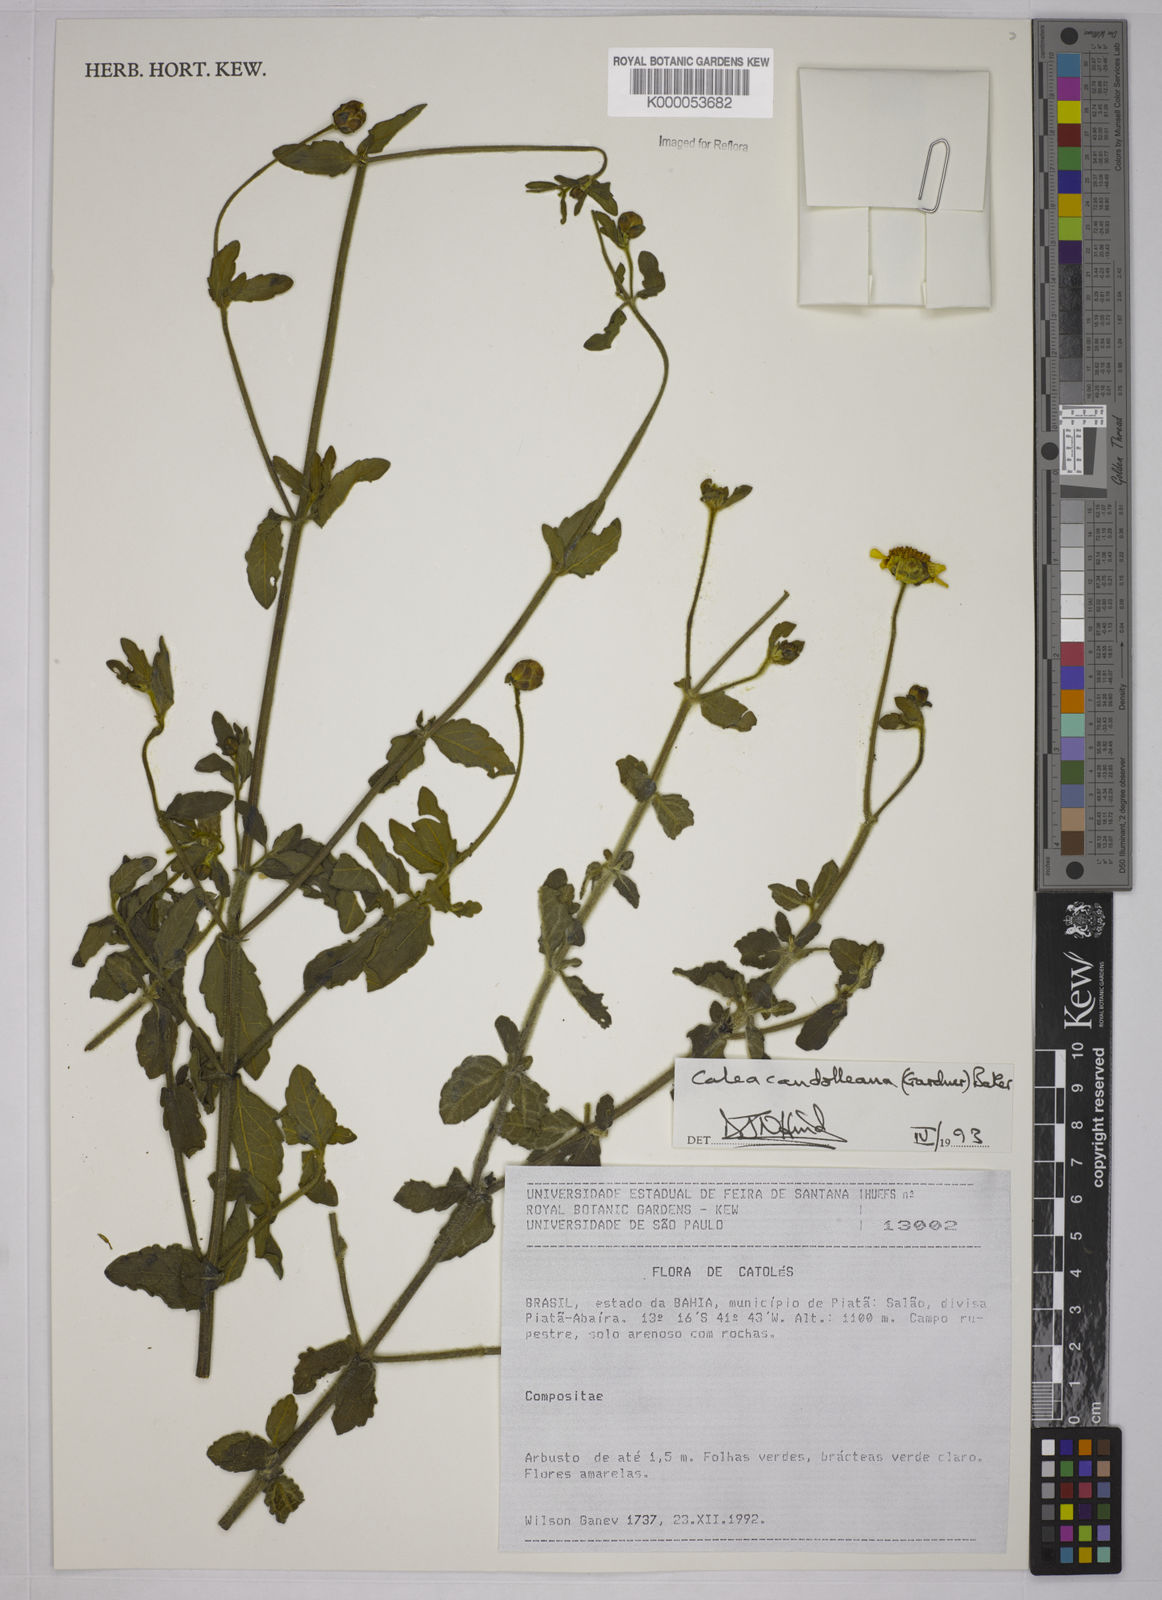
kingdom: Plantae
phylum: Tracheophyta
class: Magnoliopsida
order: Asterales
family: Asteraceae
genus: Calea
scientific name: Calea candolleana
